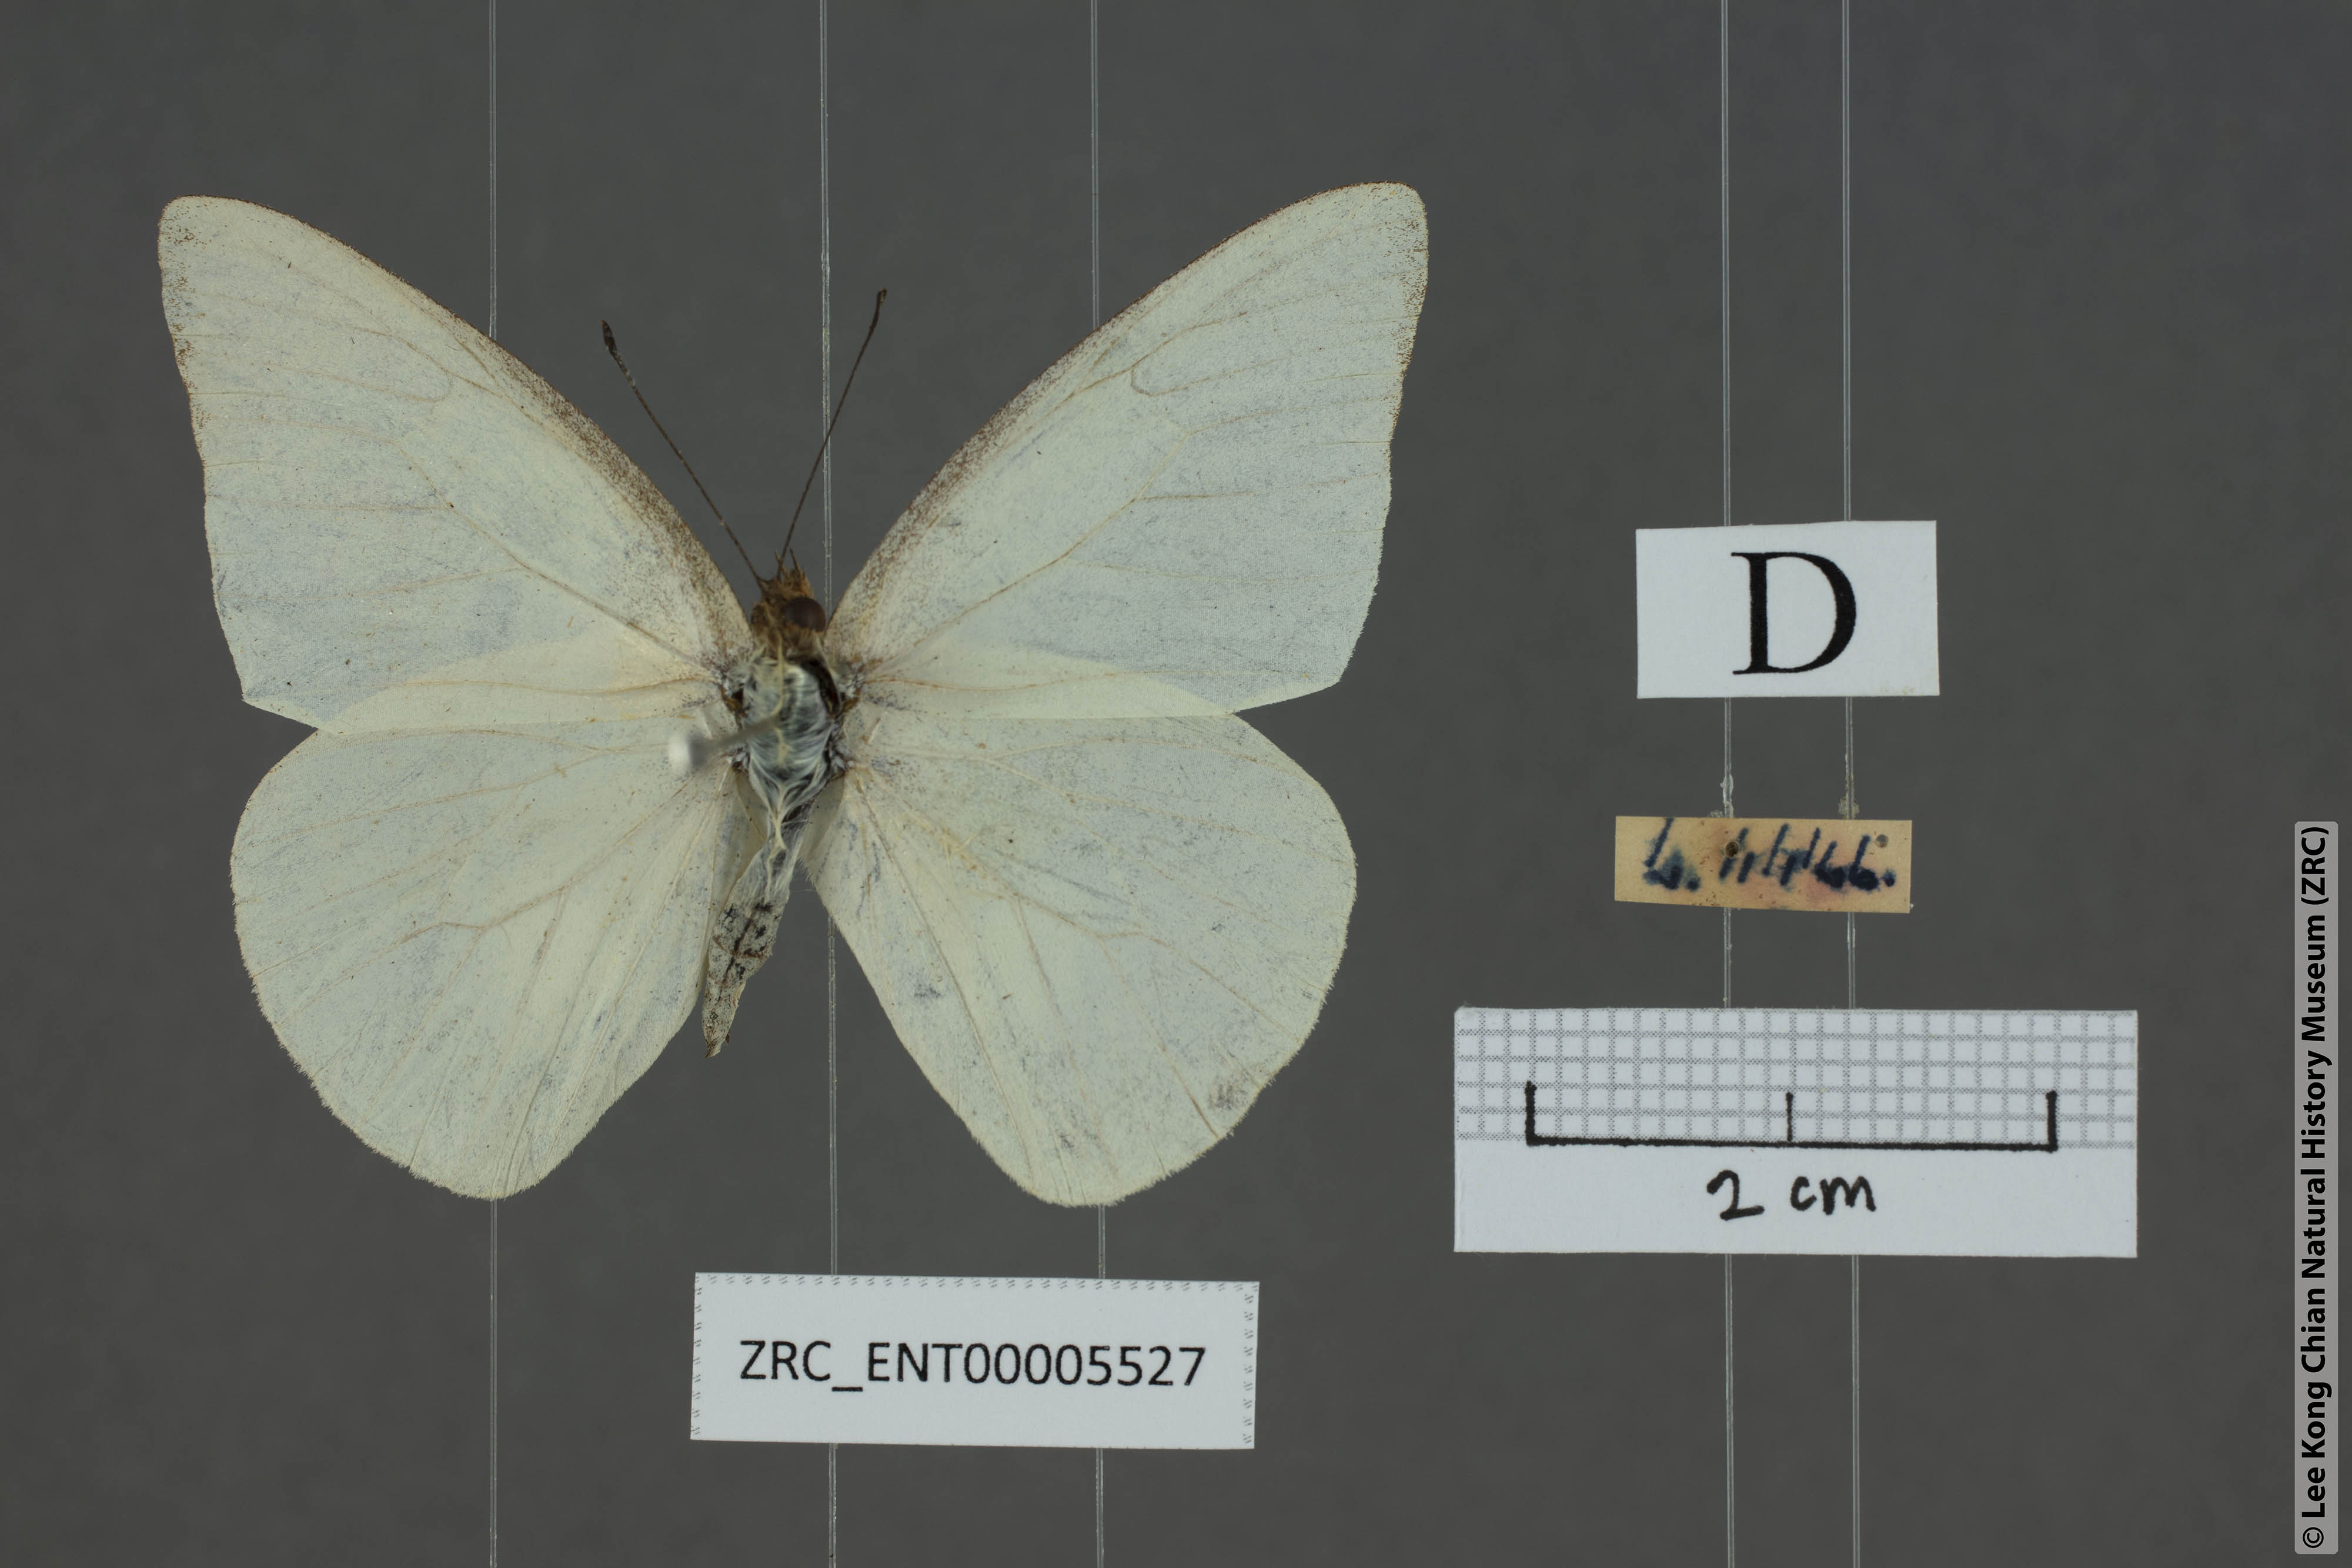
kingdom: Animalia
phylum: Arthropoda
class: Insecta
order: Lepidoptera
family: Pieridae
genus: Appias
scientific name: Appias albina
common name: Common albatross
